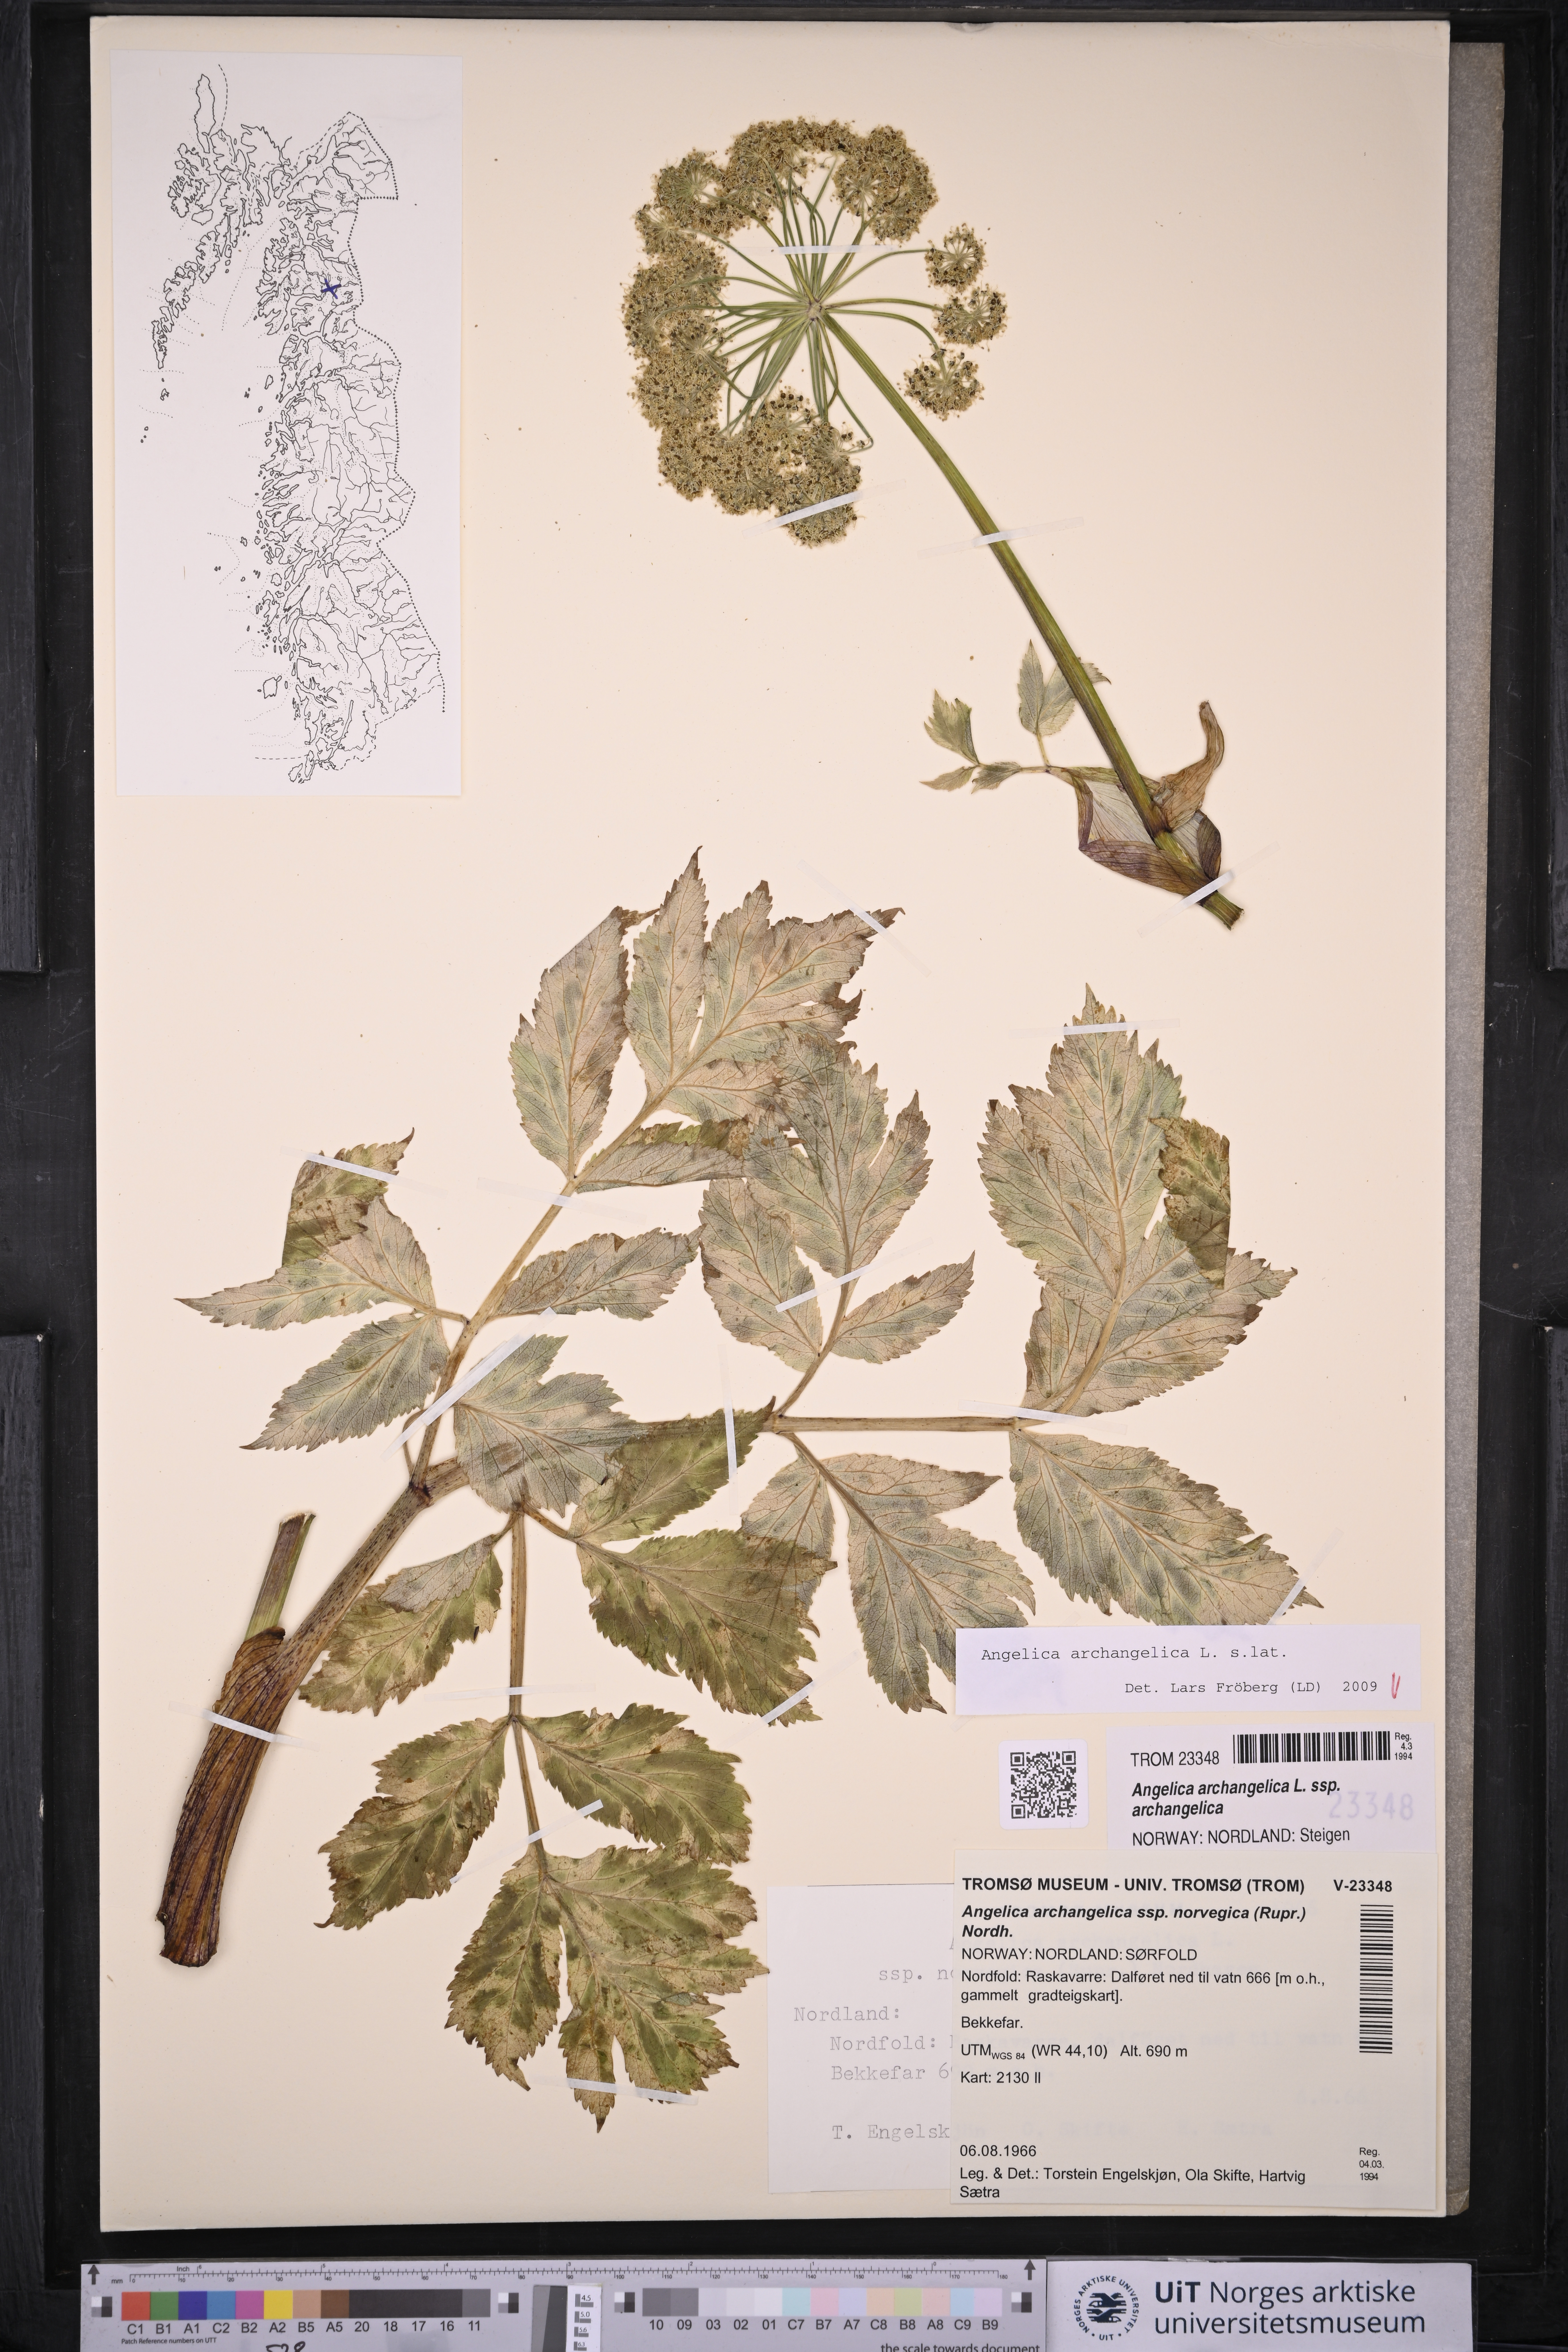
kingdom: Plantae
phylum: Tracheophyta
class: Magnoliopsida
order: Apiales
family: Apiaceae
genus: Angelica
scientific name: Angelica archangelica
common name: Garden angelica
